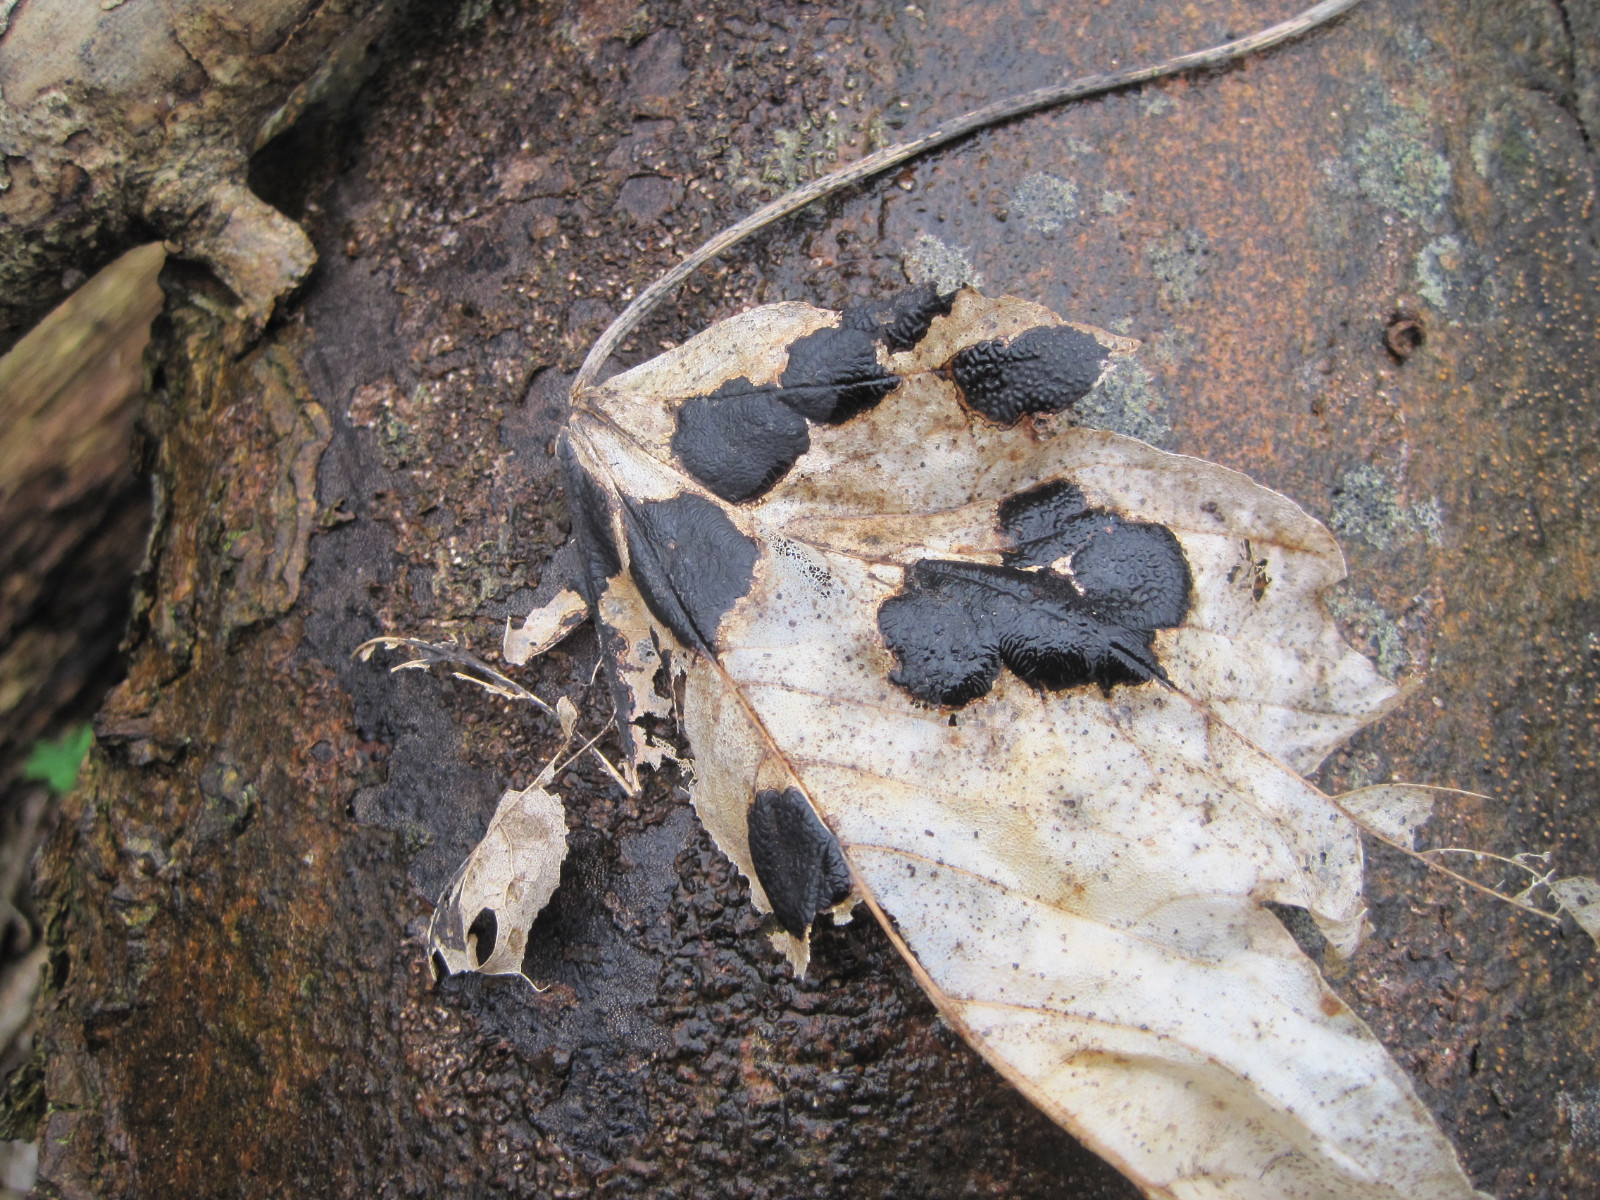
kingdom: Fungi
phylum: Ascomycota
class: Leotiomycetes
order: Rhytismatales
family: Rhytismataceae
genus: Rhytisma
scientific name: Rhytisma acerinum
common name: ahorn-rynkeplet
